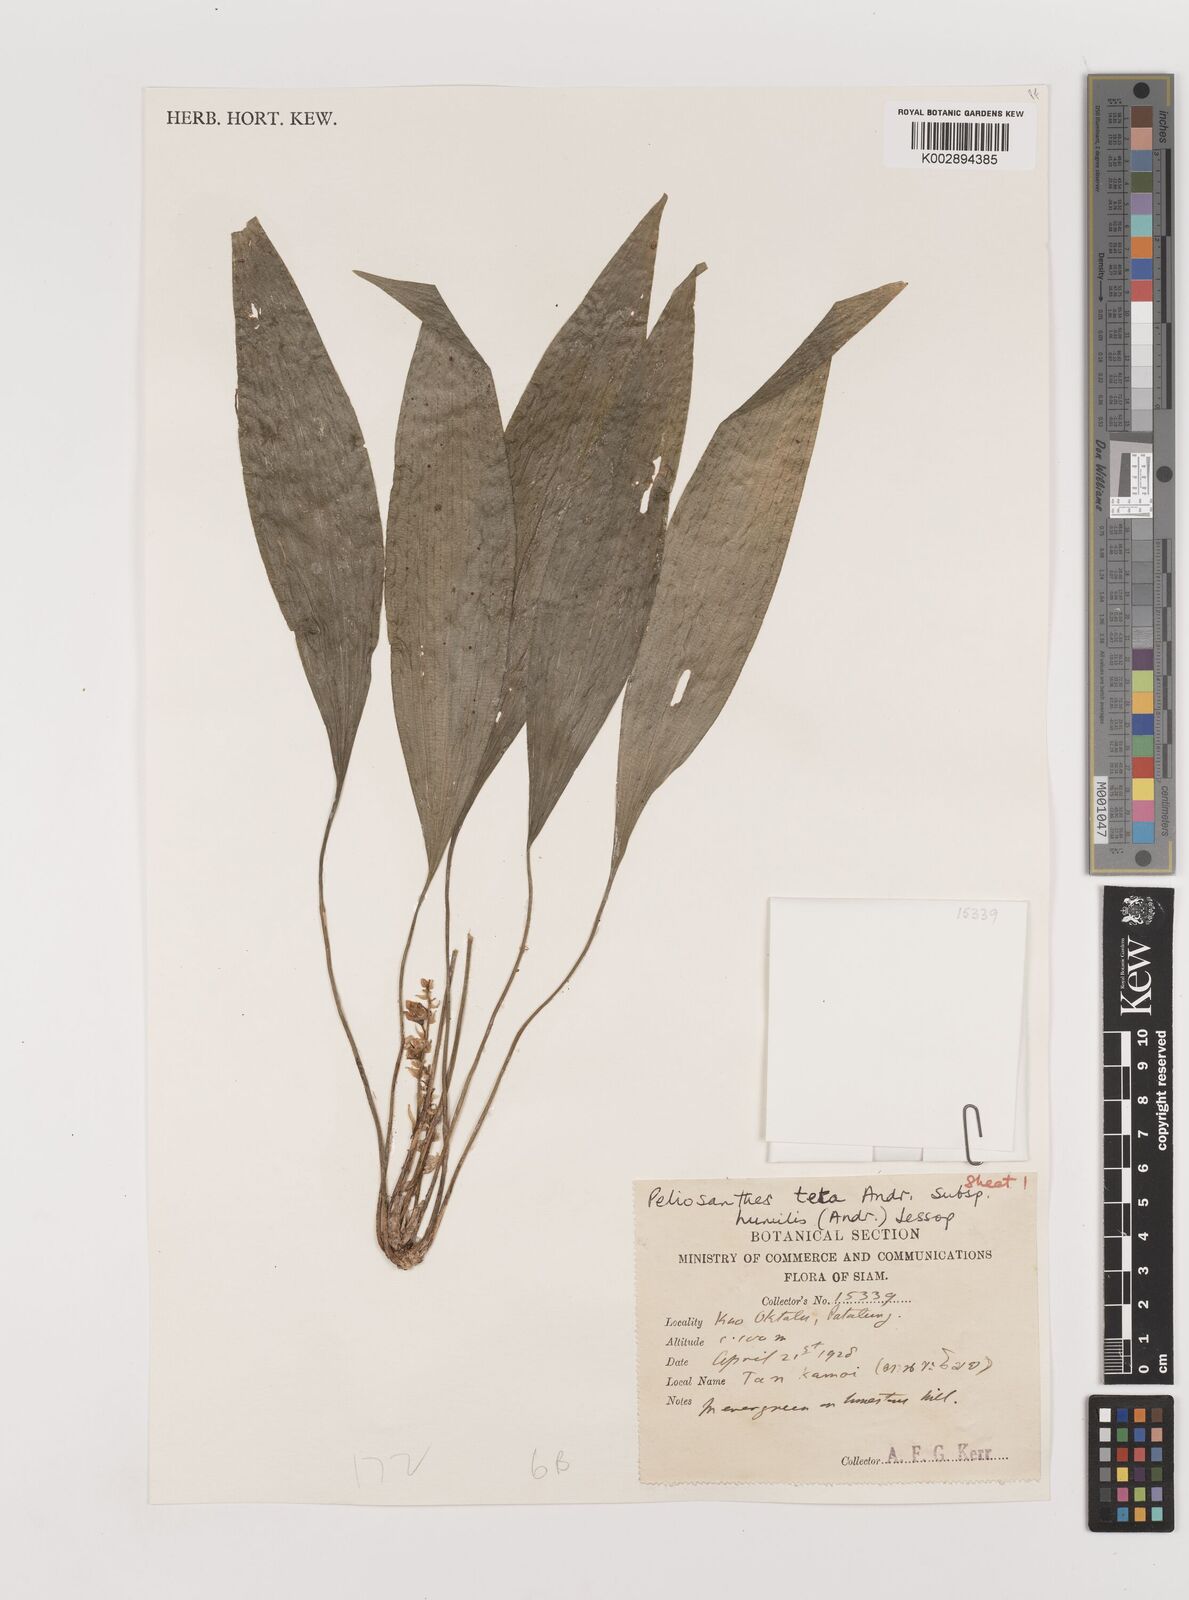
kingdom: Plantae
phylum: Tracheophyta
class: Liliopsida
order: Asparagales
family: Asparagaceae
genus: Peliosanthes
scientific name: Peliosanthes teta
